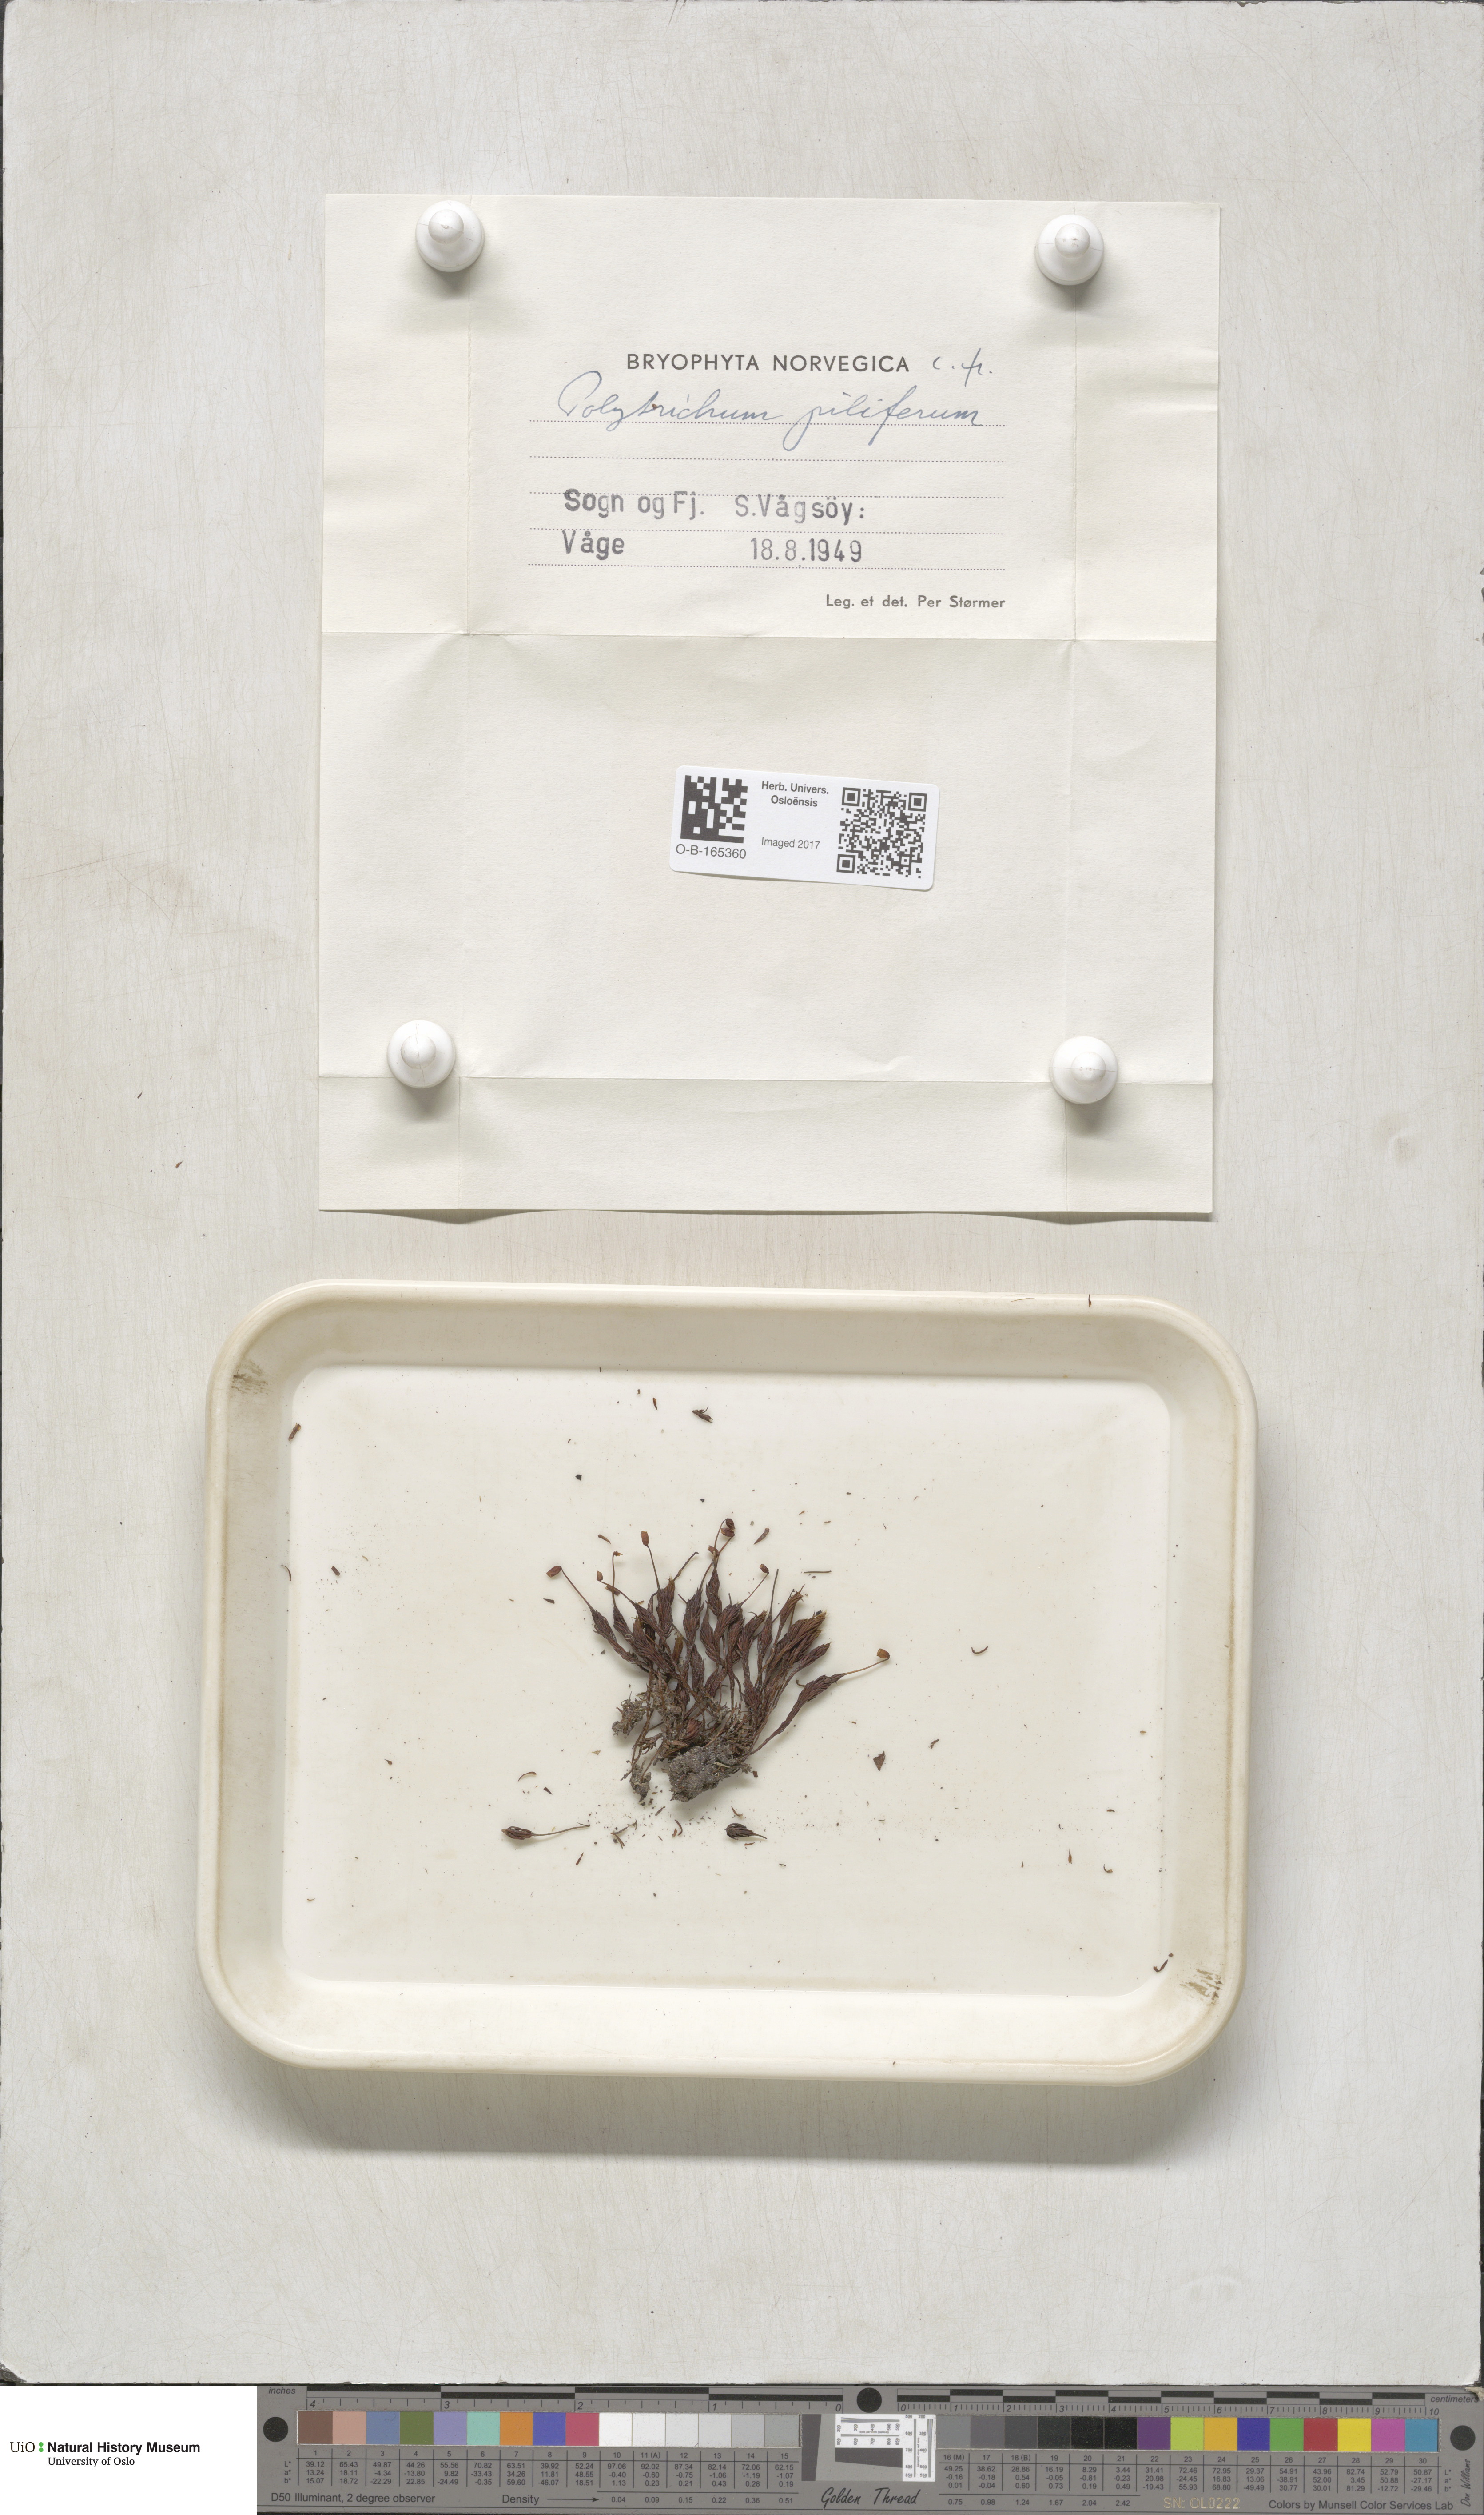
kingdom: Plantae
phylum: Bryophyta
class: Polytrichopsida
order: Polytrichales
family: Polytrichaceae
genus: Polytrichum
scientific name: Polytrichum piliferum
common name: Bristly haircap
